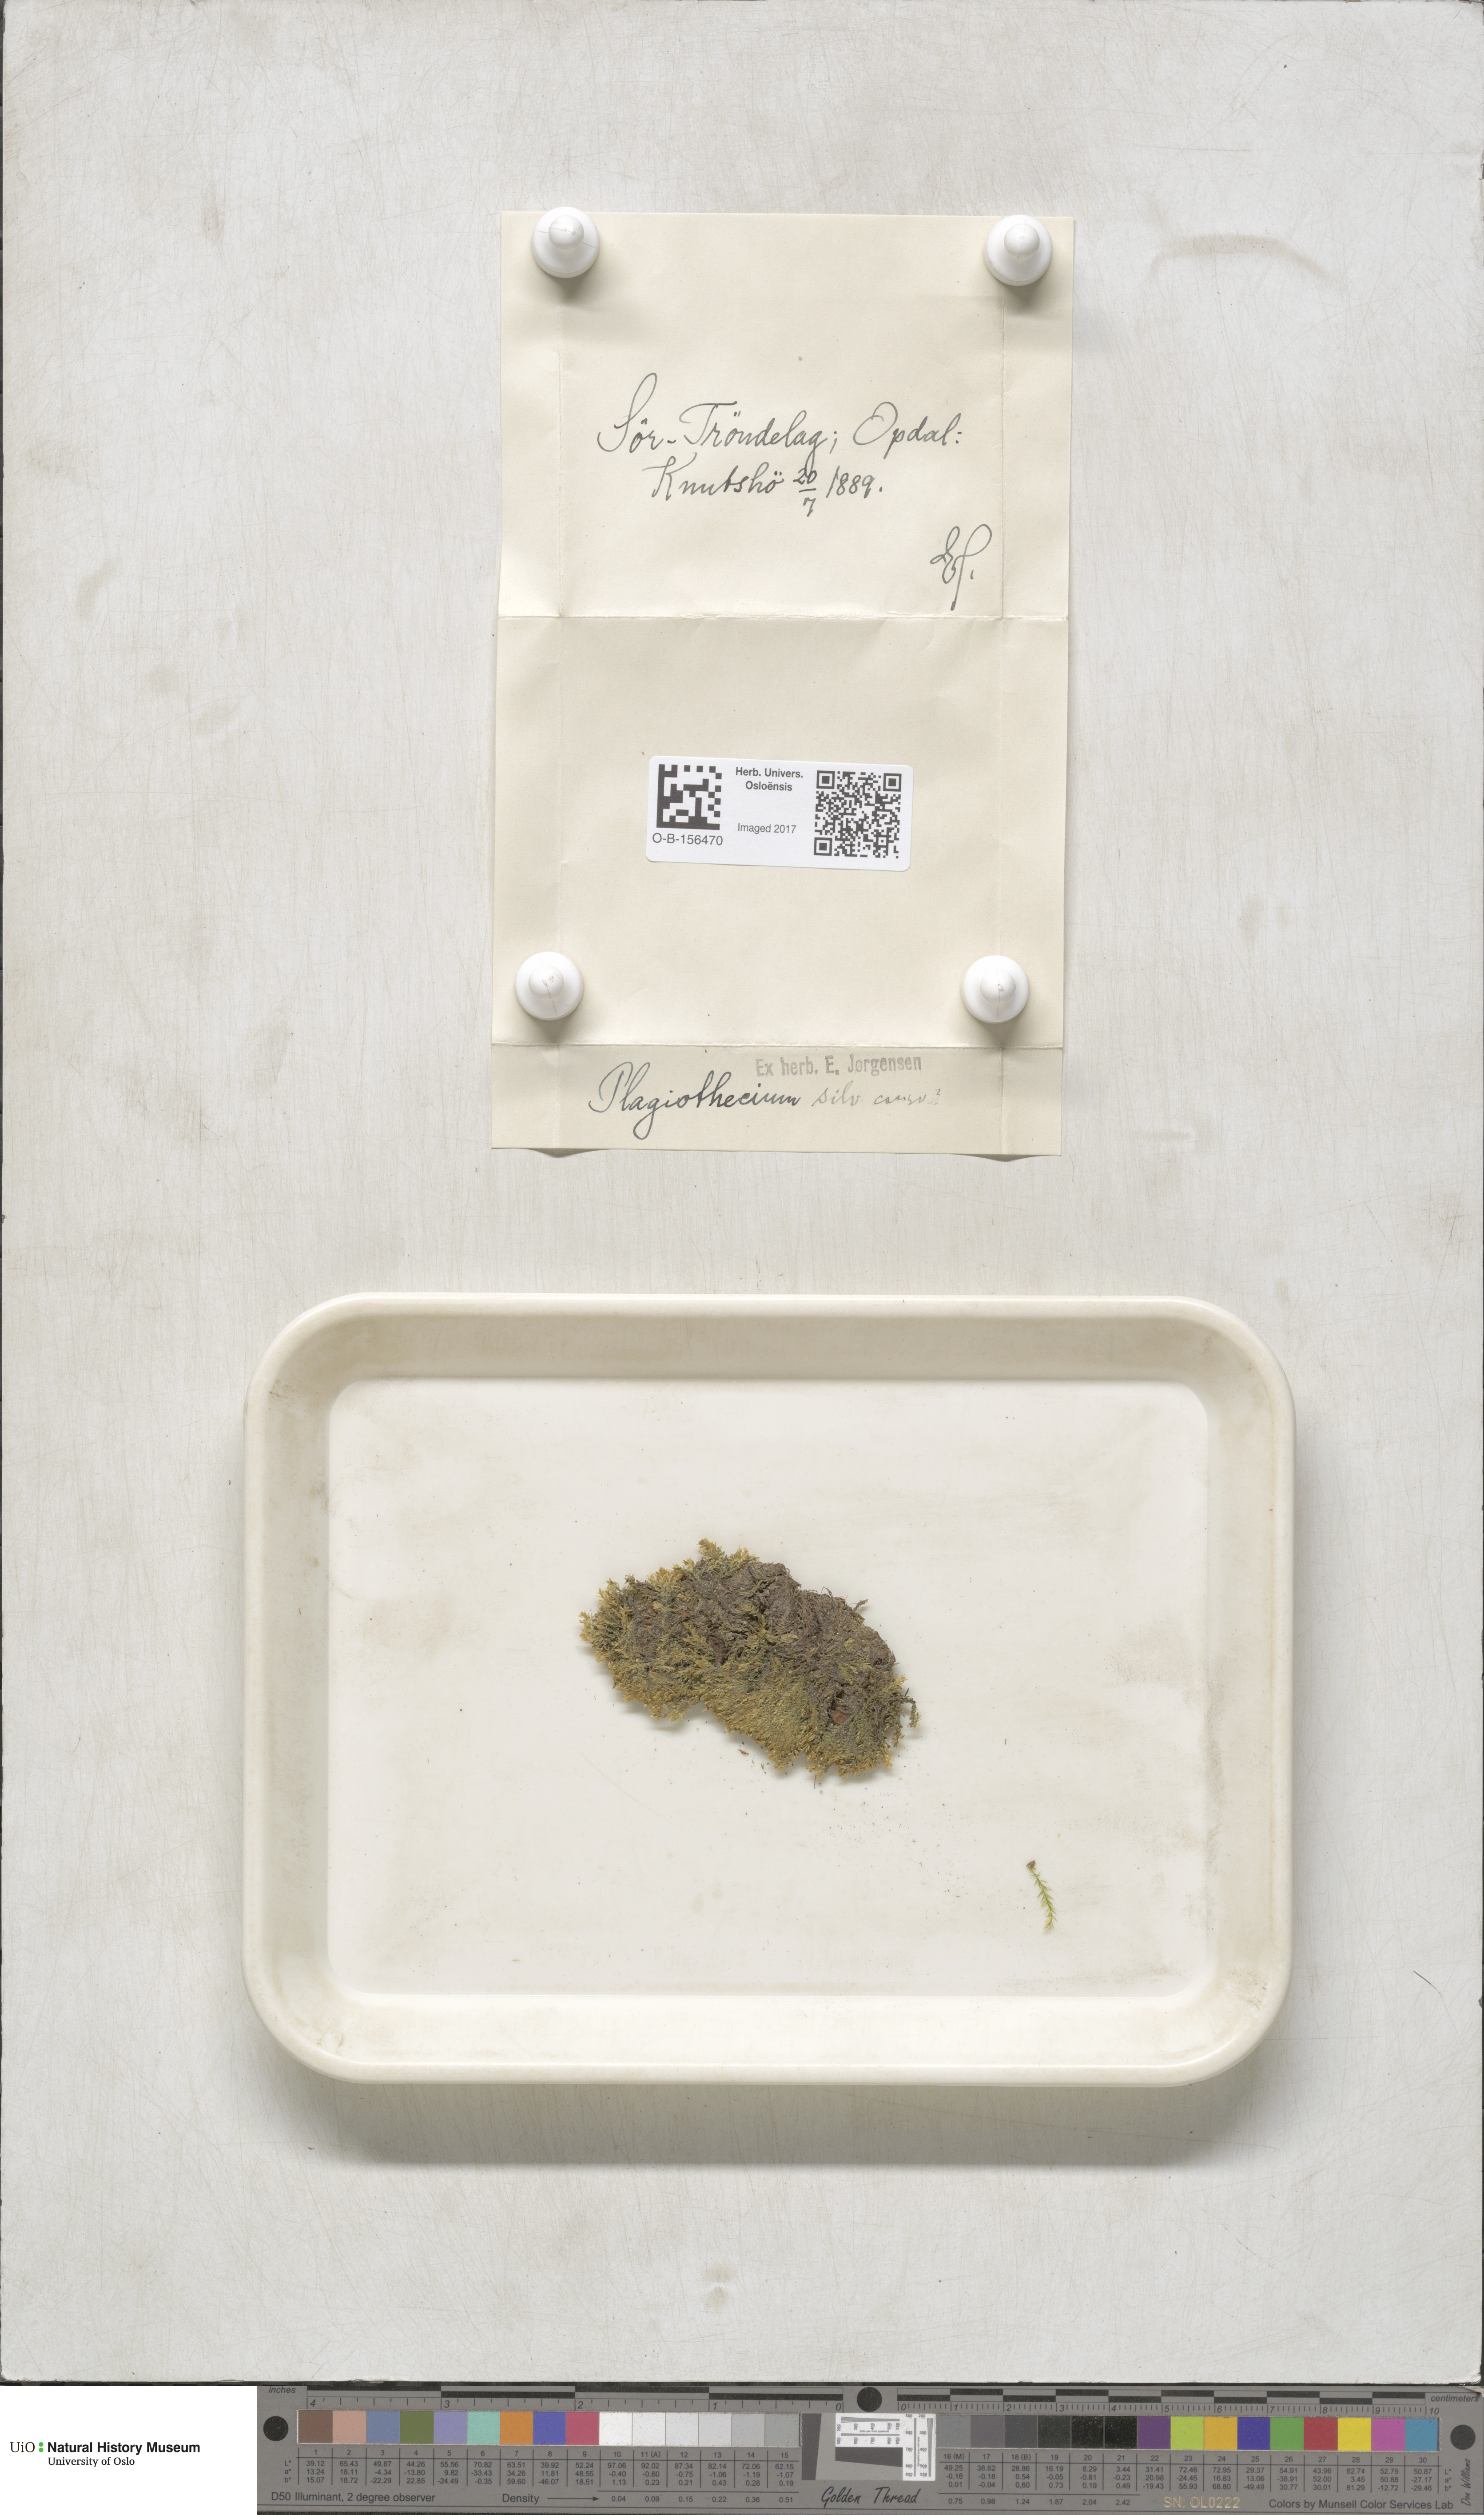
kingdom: Plantae
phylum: Bryophyta
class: Bryopsida
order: Hypnales
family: Plagiotheciaceae
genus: Plagiothecium
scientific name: Plagiothecium nemorale
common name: Woodsy silk-moss
